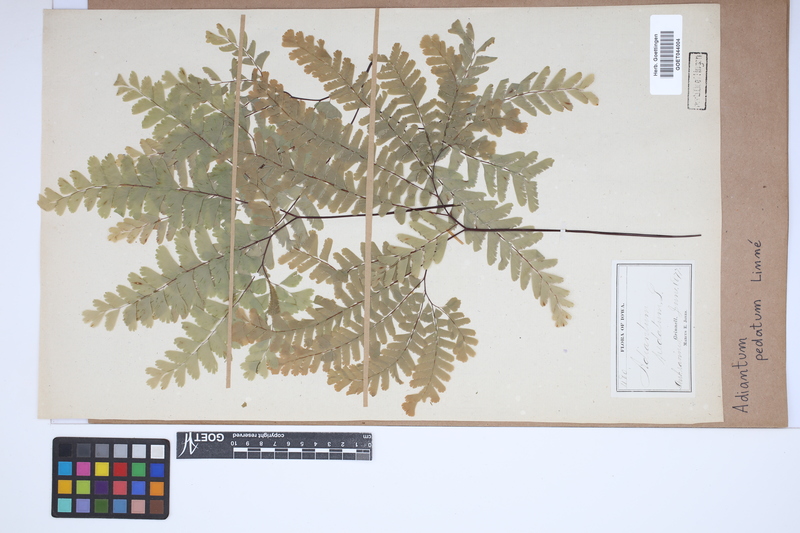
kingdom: Plantae
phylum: Tracheophyta
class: Polypodiopsida
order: Polypodiales
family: Pteridaceae
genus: Adiantum
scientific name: Adiantum pedatum
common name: Five-finger fern
